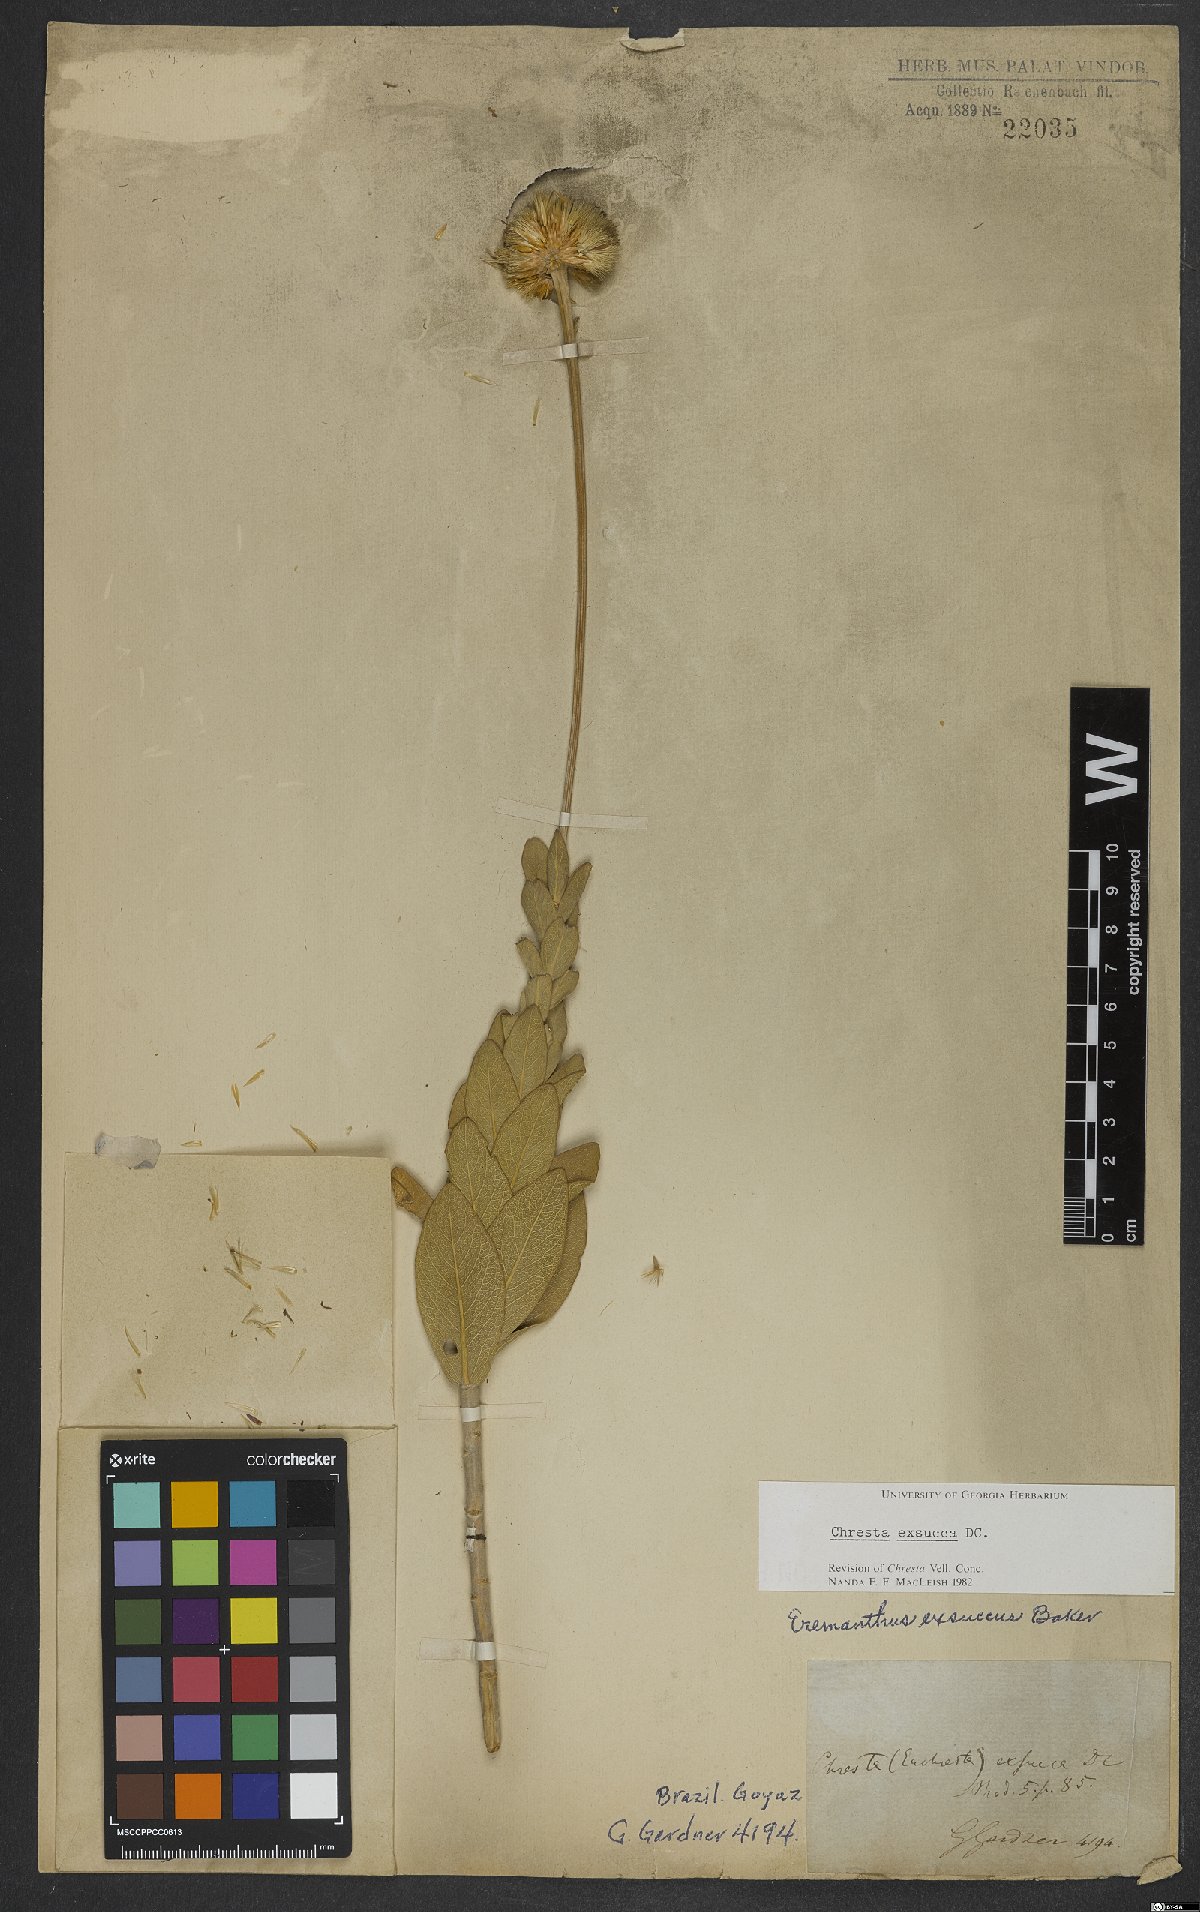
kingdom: Plantae
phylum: Tracheophyta
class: Magnoliopsida
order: Asterales
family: Asteraceae
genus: Chresta
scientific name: Chresta exsucca
